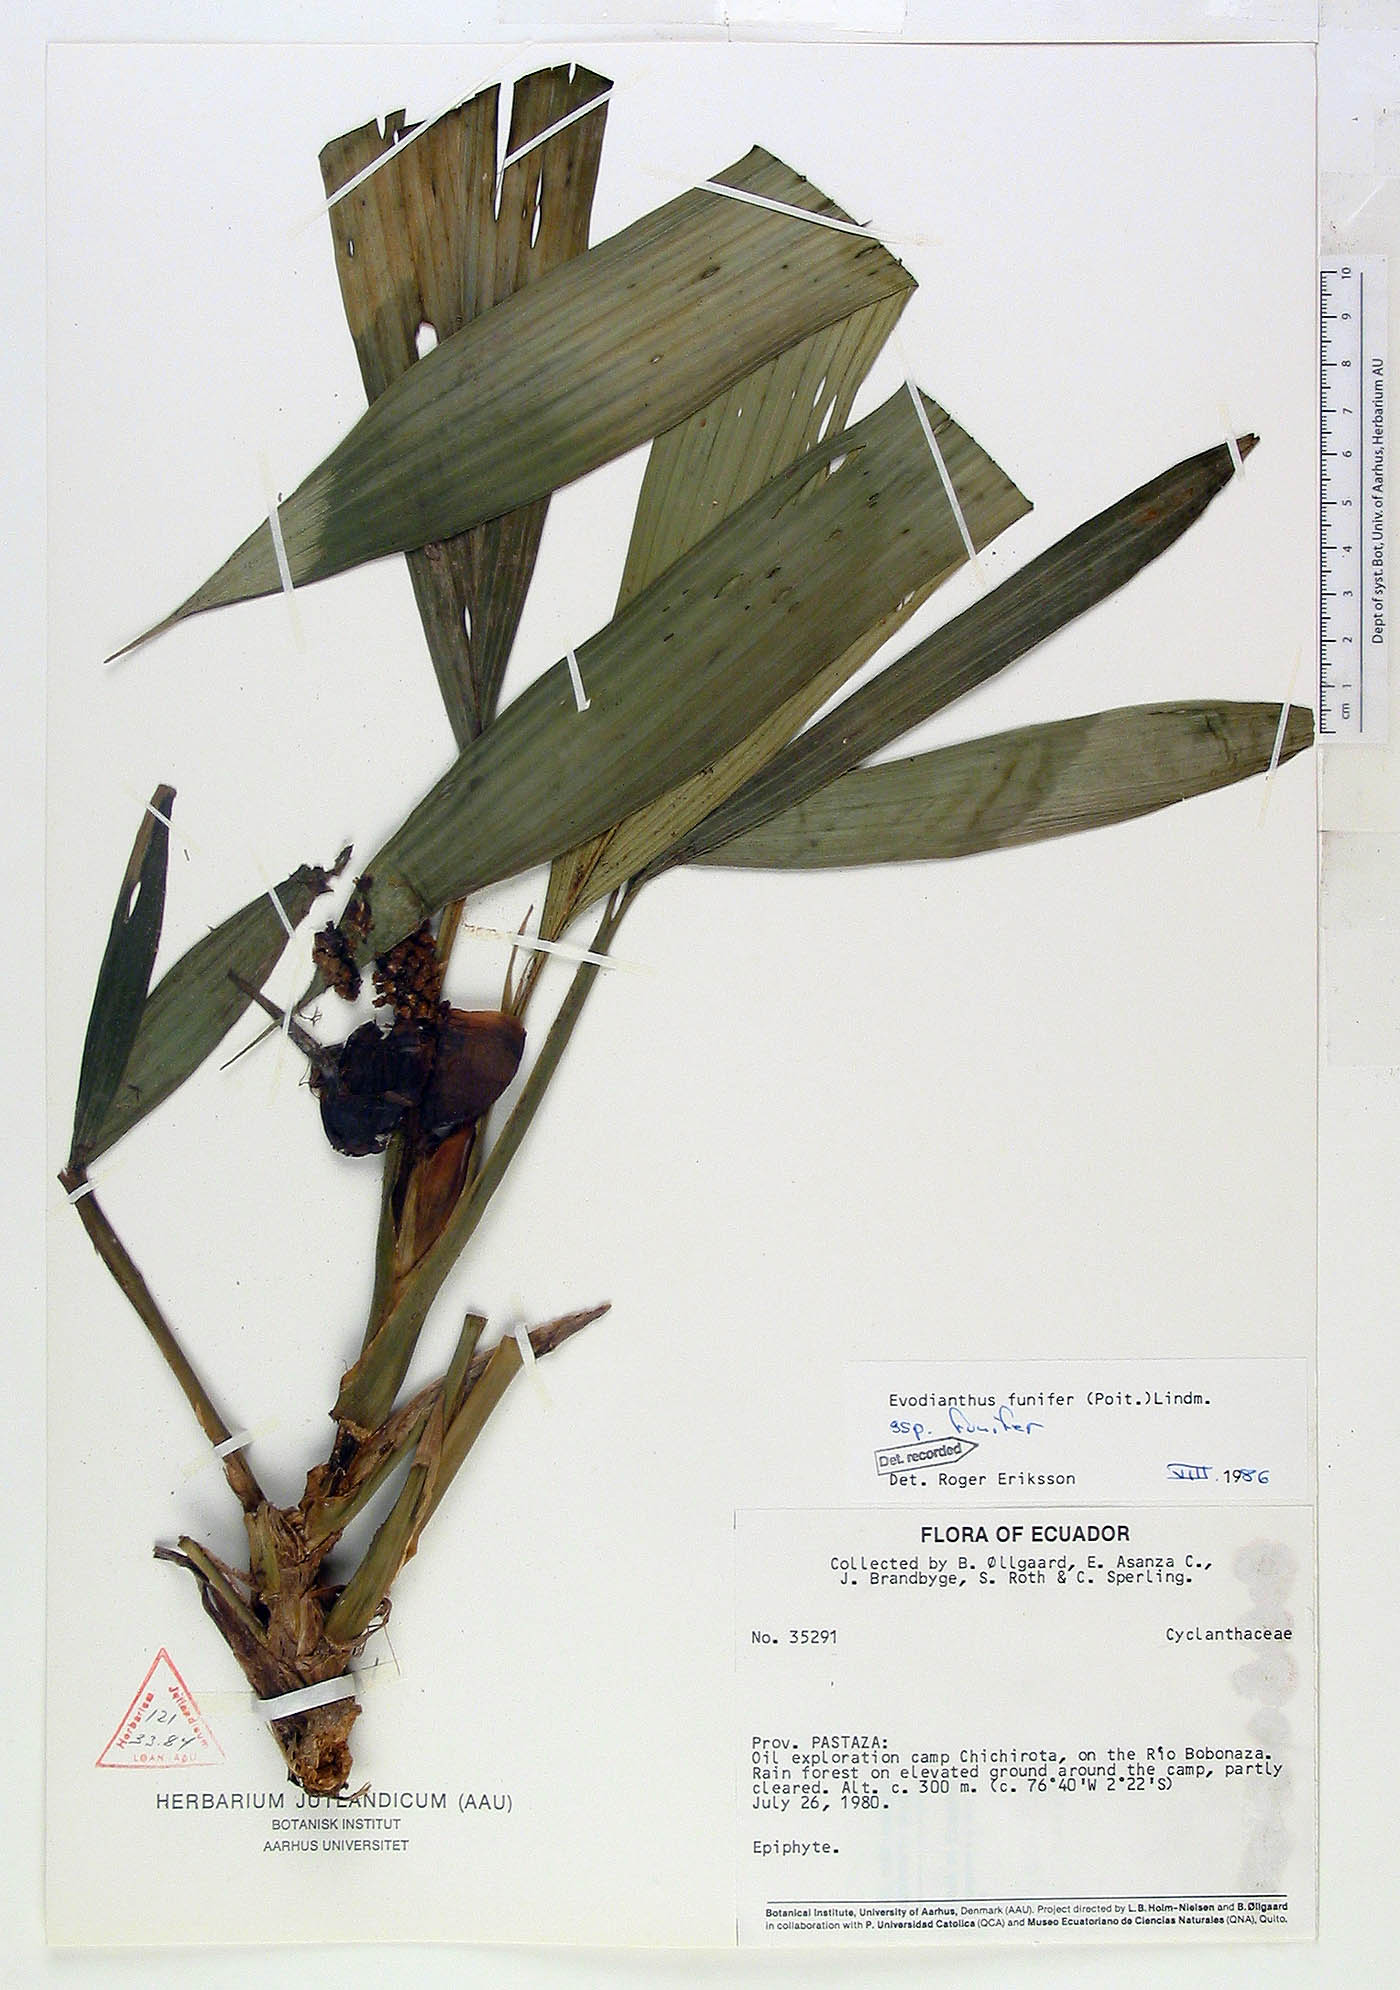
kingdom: Plantae
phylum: Tracheophyta
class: Liliopsida
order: Pandanales
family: Cyclanthaceae
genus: Evodianthus
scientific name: Evodianthus funifer
